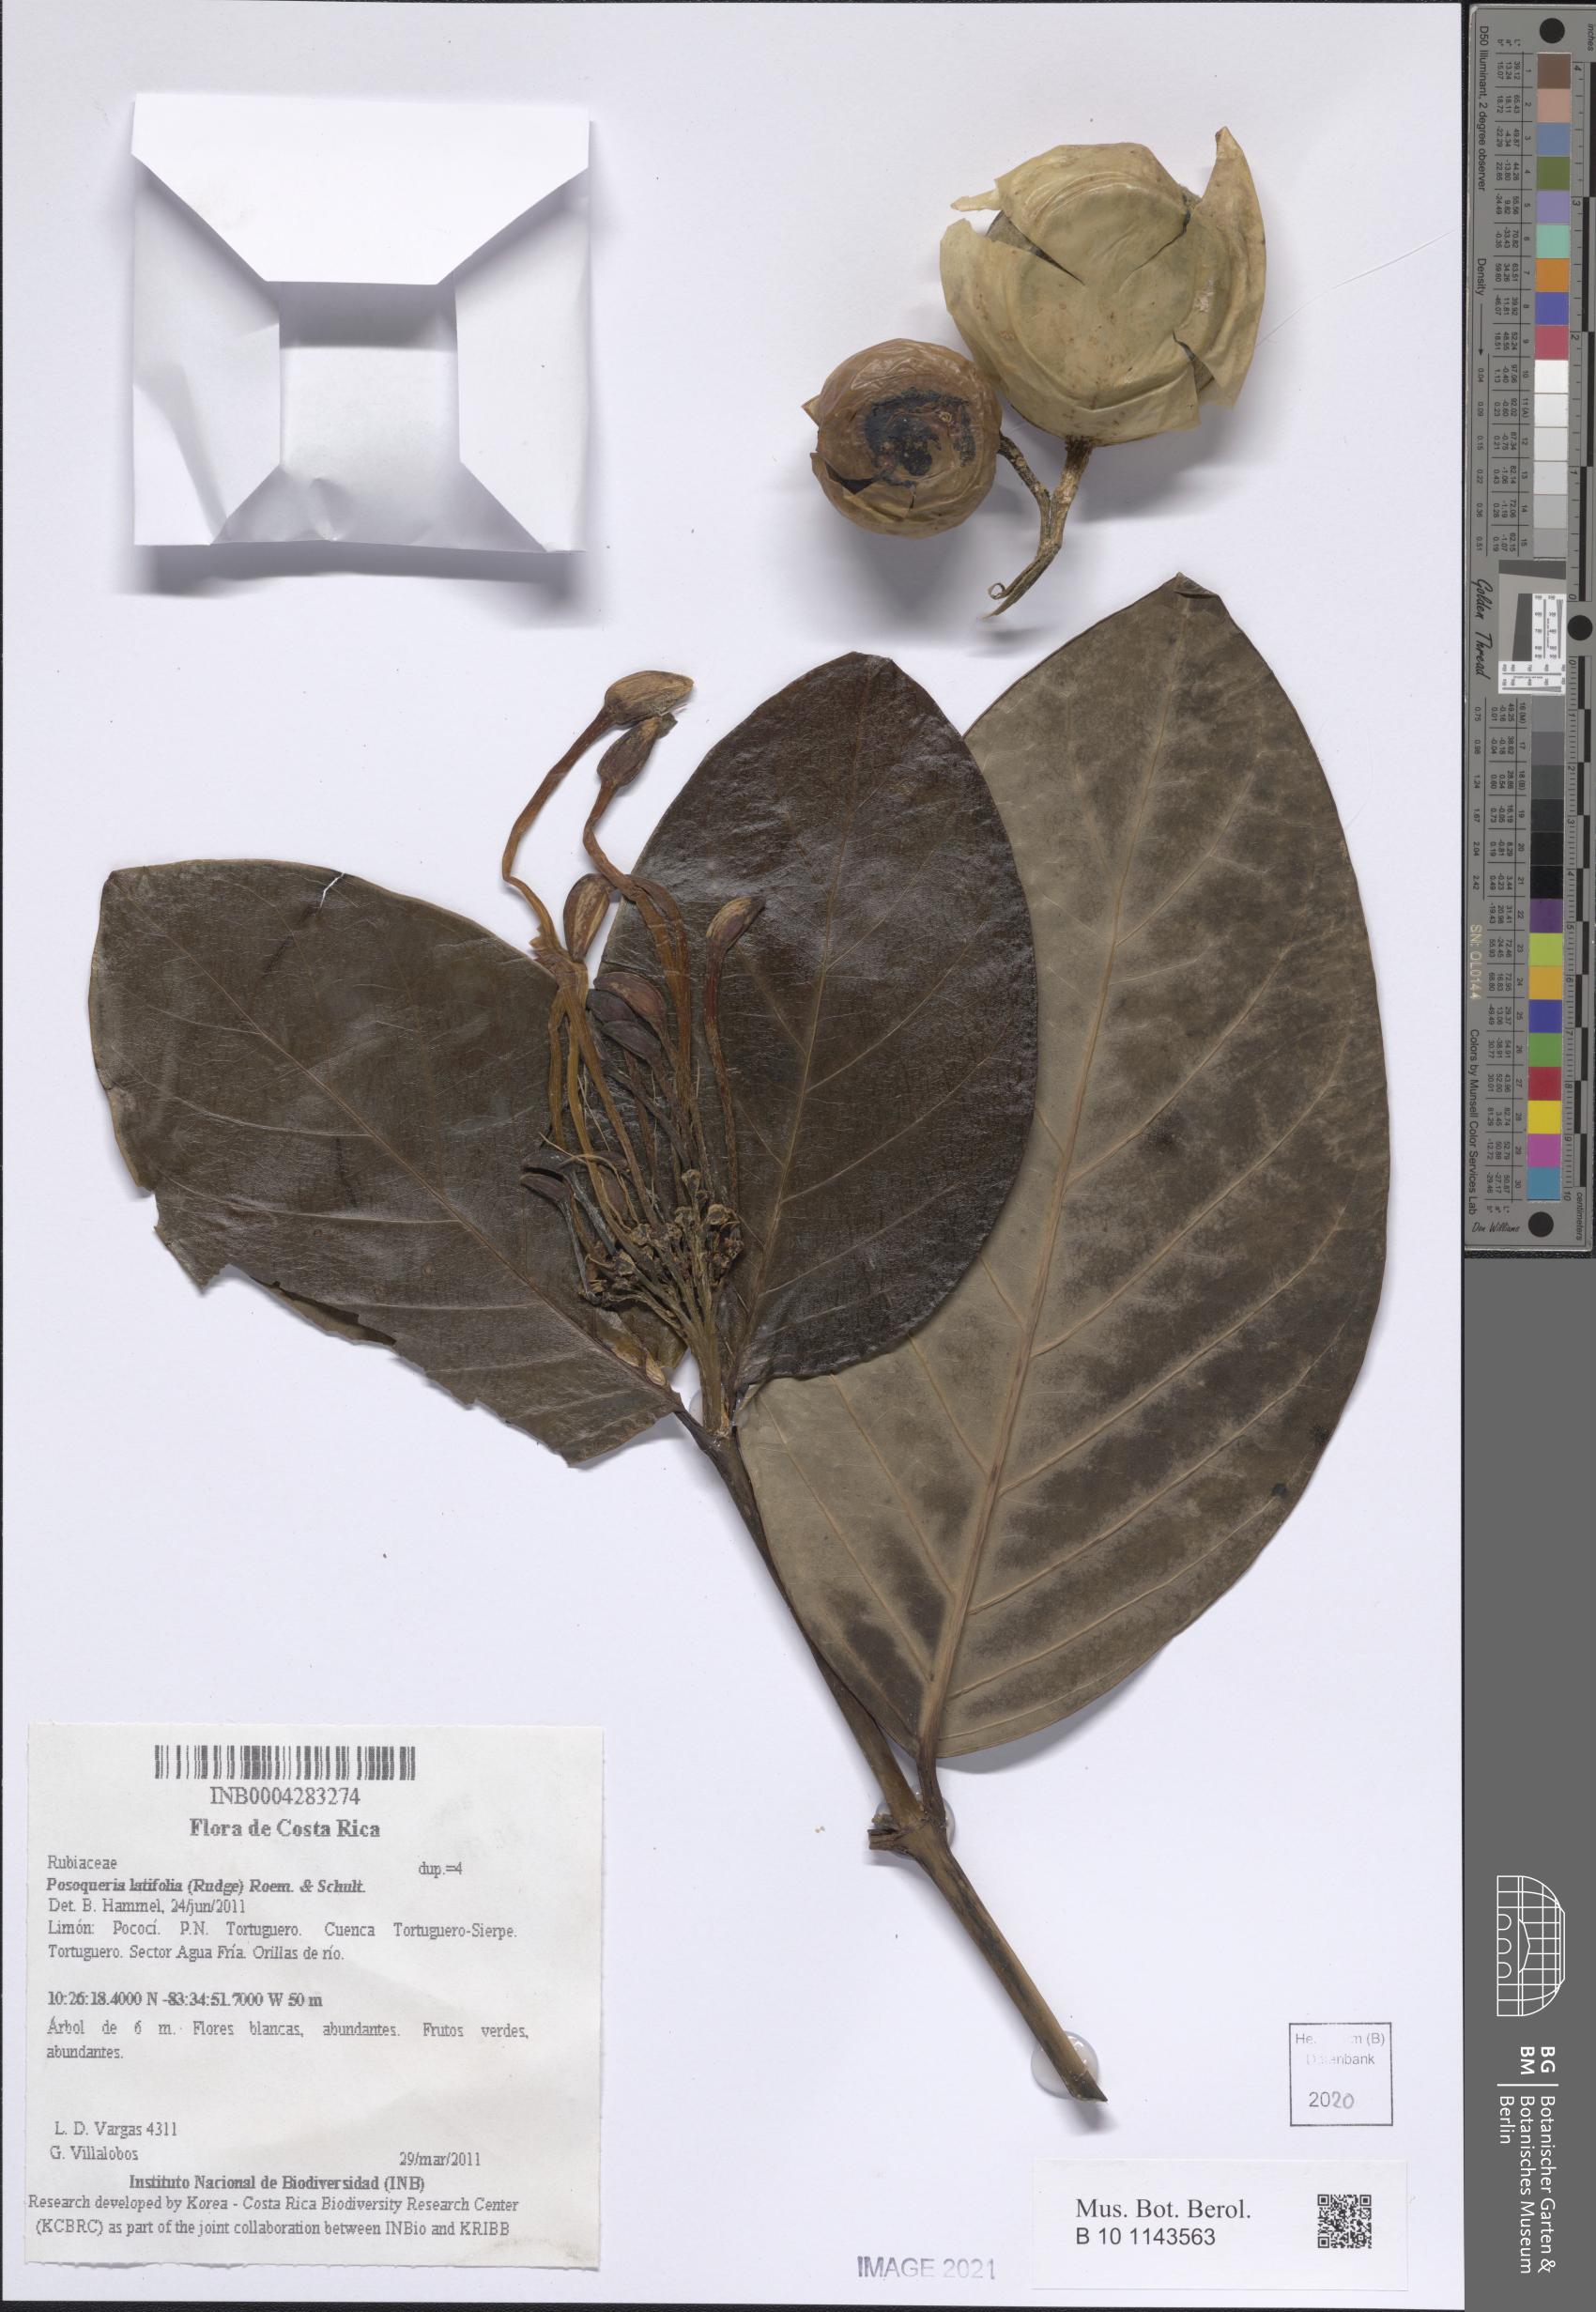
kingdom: Plantae
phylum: Tracheophyta
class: Magnoliopsida
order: Gentianales
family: Rubiaceae
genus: Posoqueria
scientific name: Posoqueria latifolia
